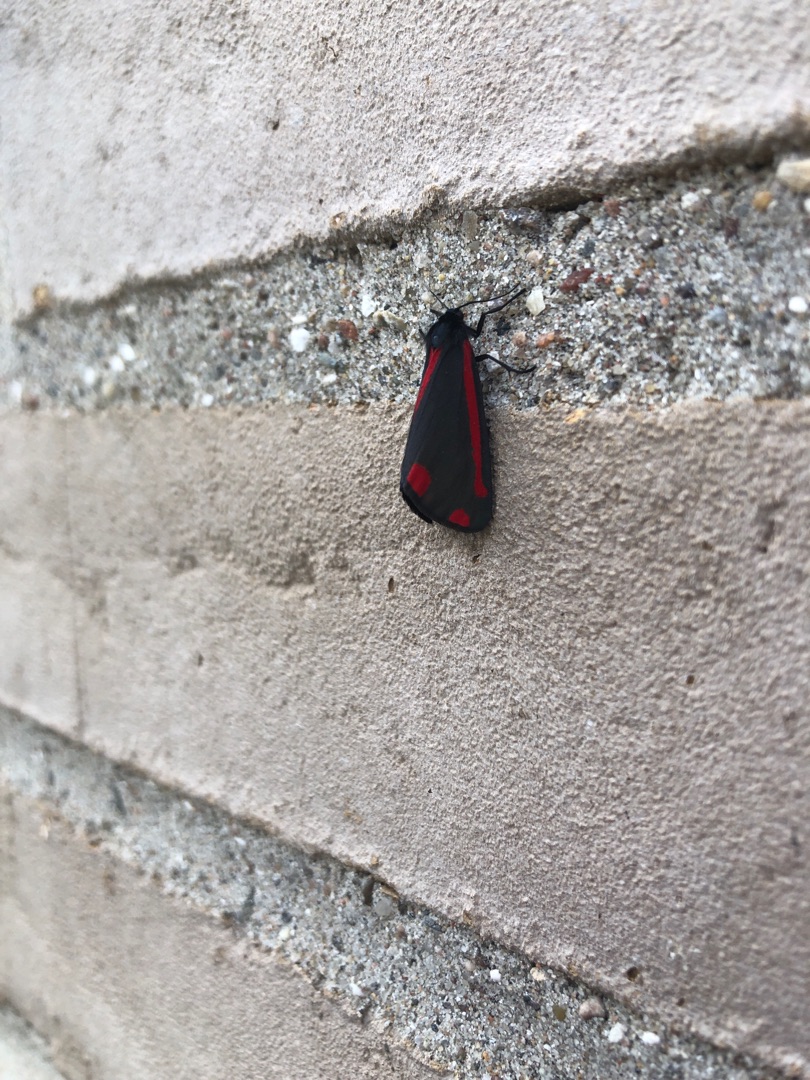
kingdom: Animalia
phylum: Arthropoda
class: Insecta
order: Lepidoptera
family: Erebidae
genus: Tyria
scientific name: Tyria jacobaeae
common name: Blodplet
